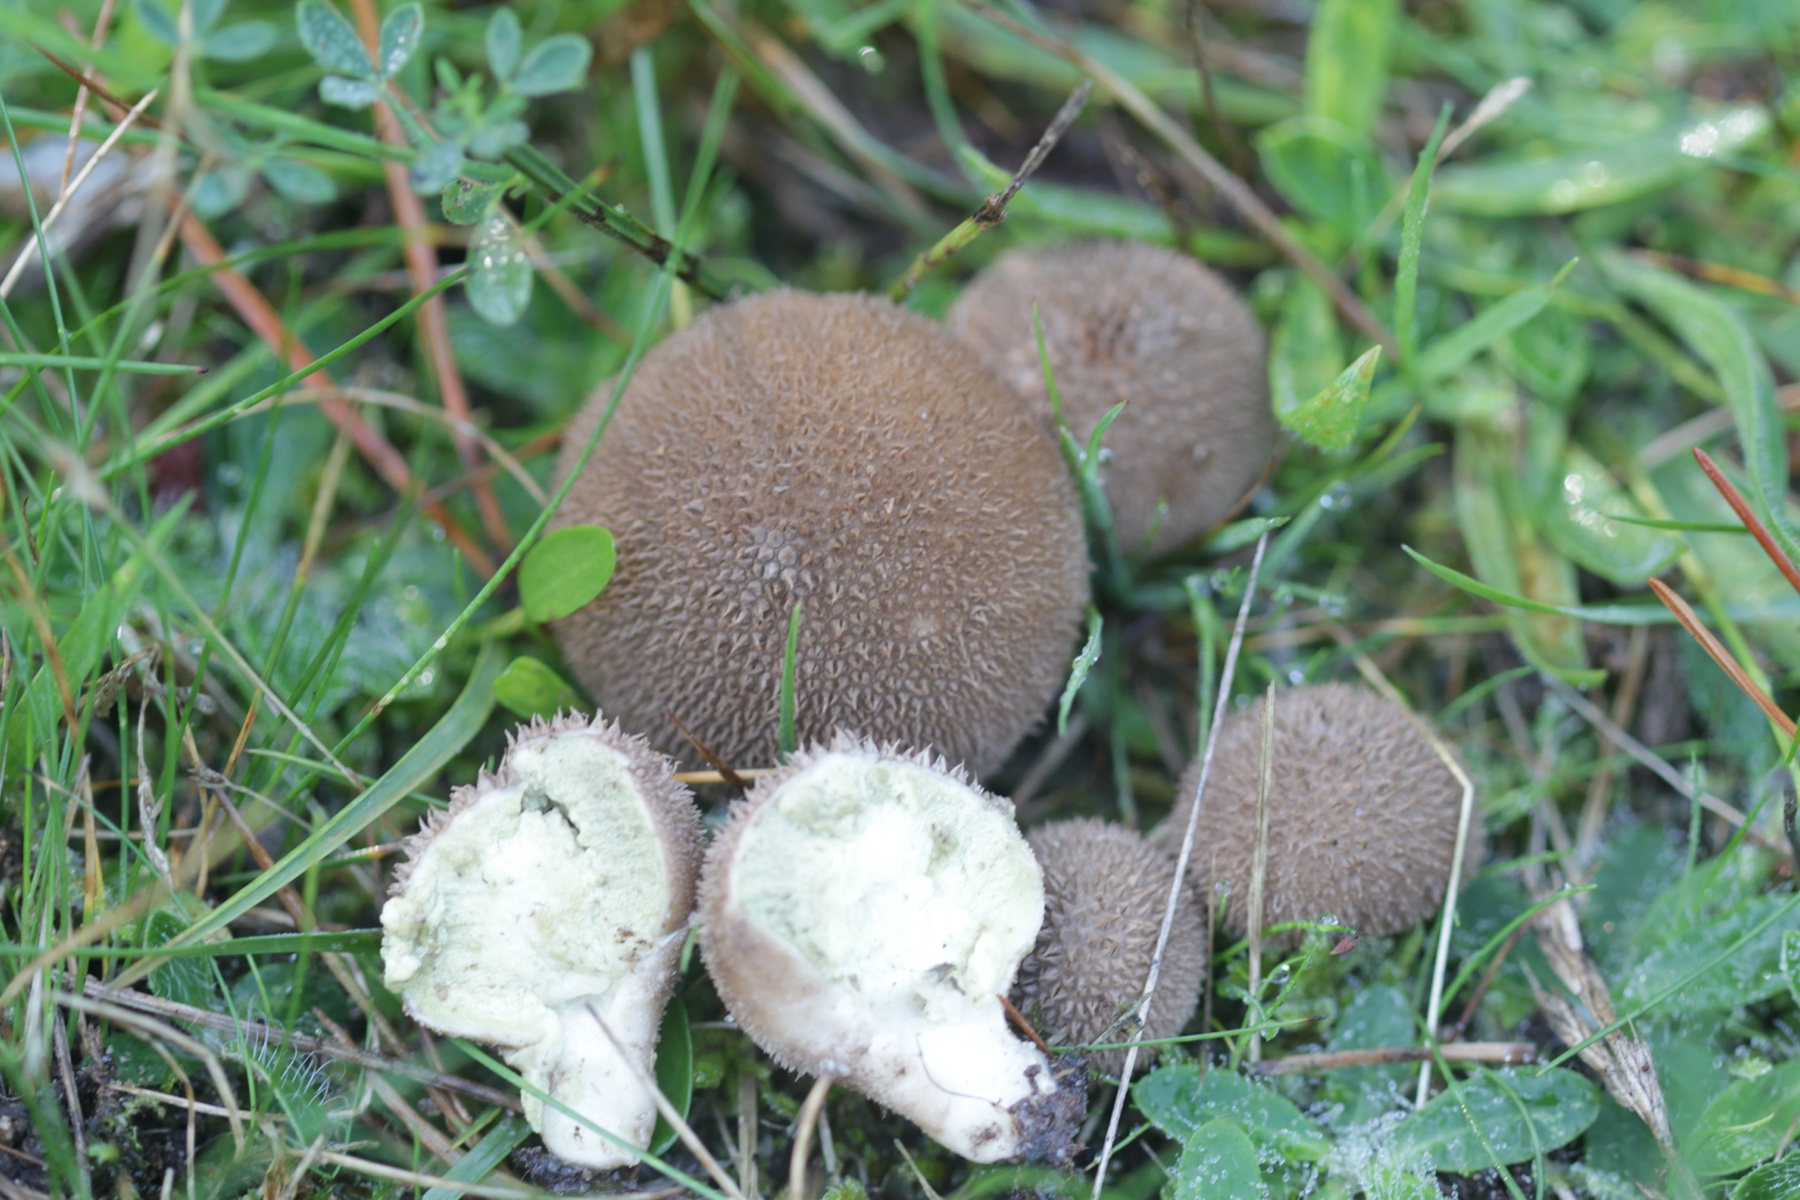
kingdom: Fungi
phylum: Basidiomycota
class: Agaricomycetes
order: Agaricales
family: Lycoperdaceae
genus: Lycoperdon
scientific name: Lycoperdon nigrescens
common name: sortagtig støvbold
